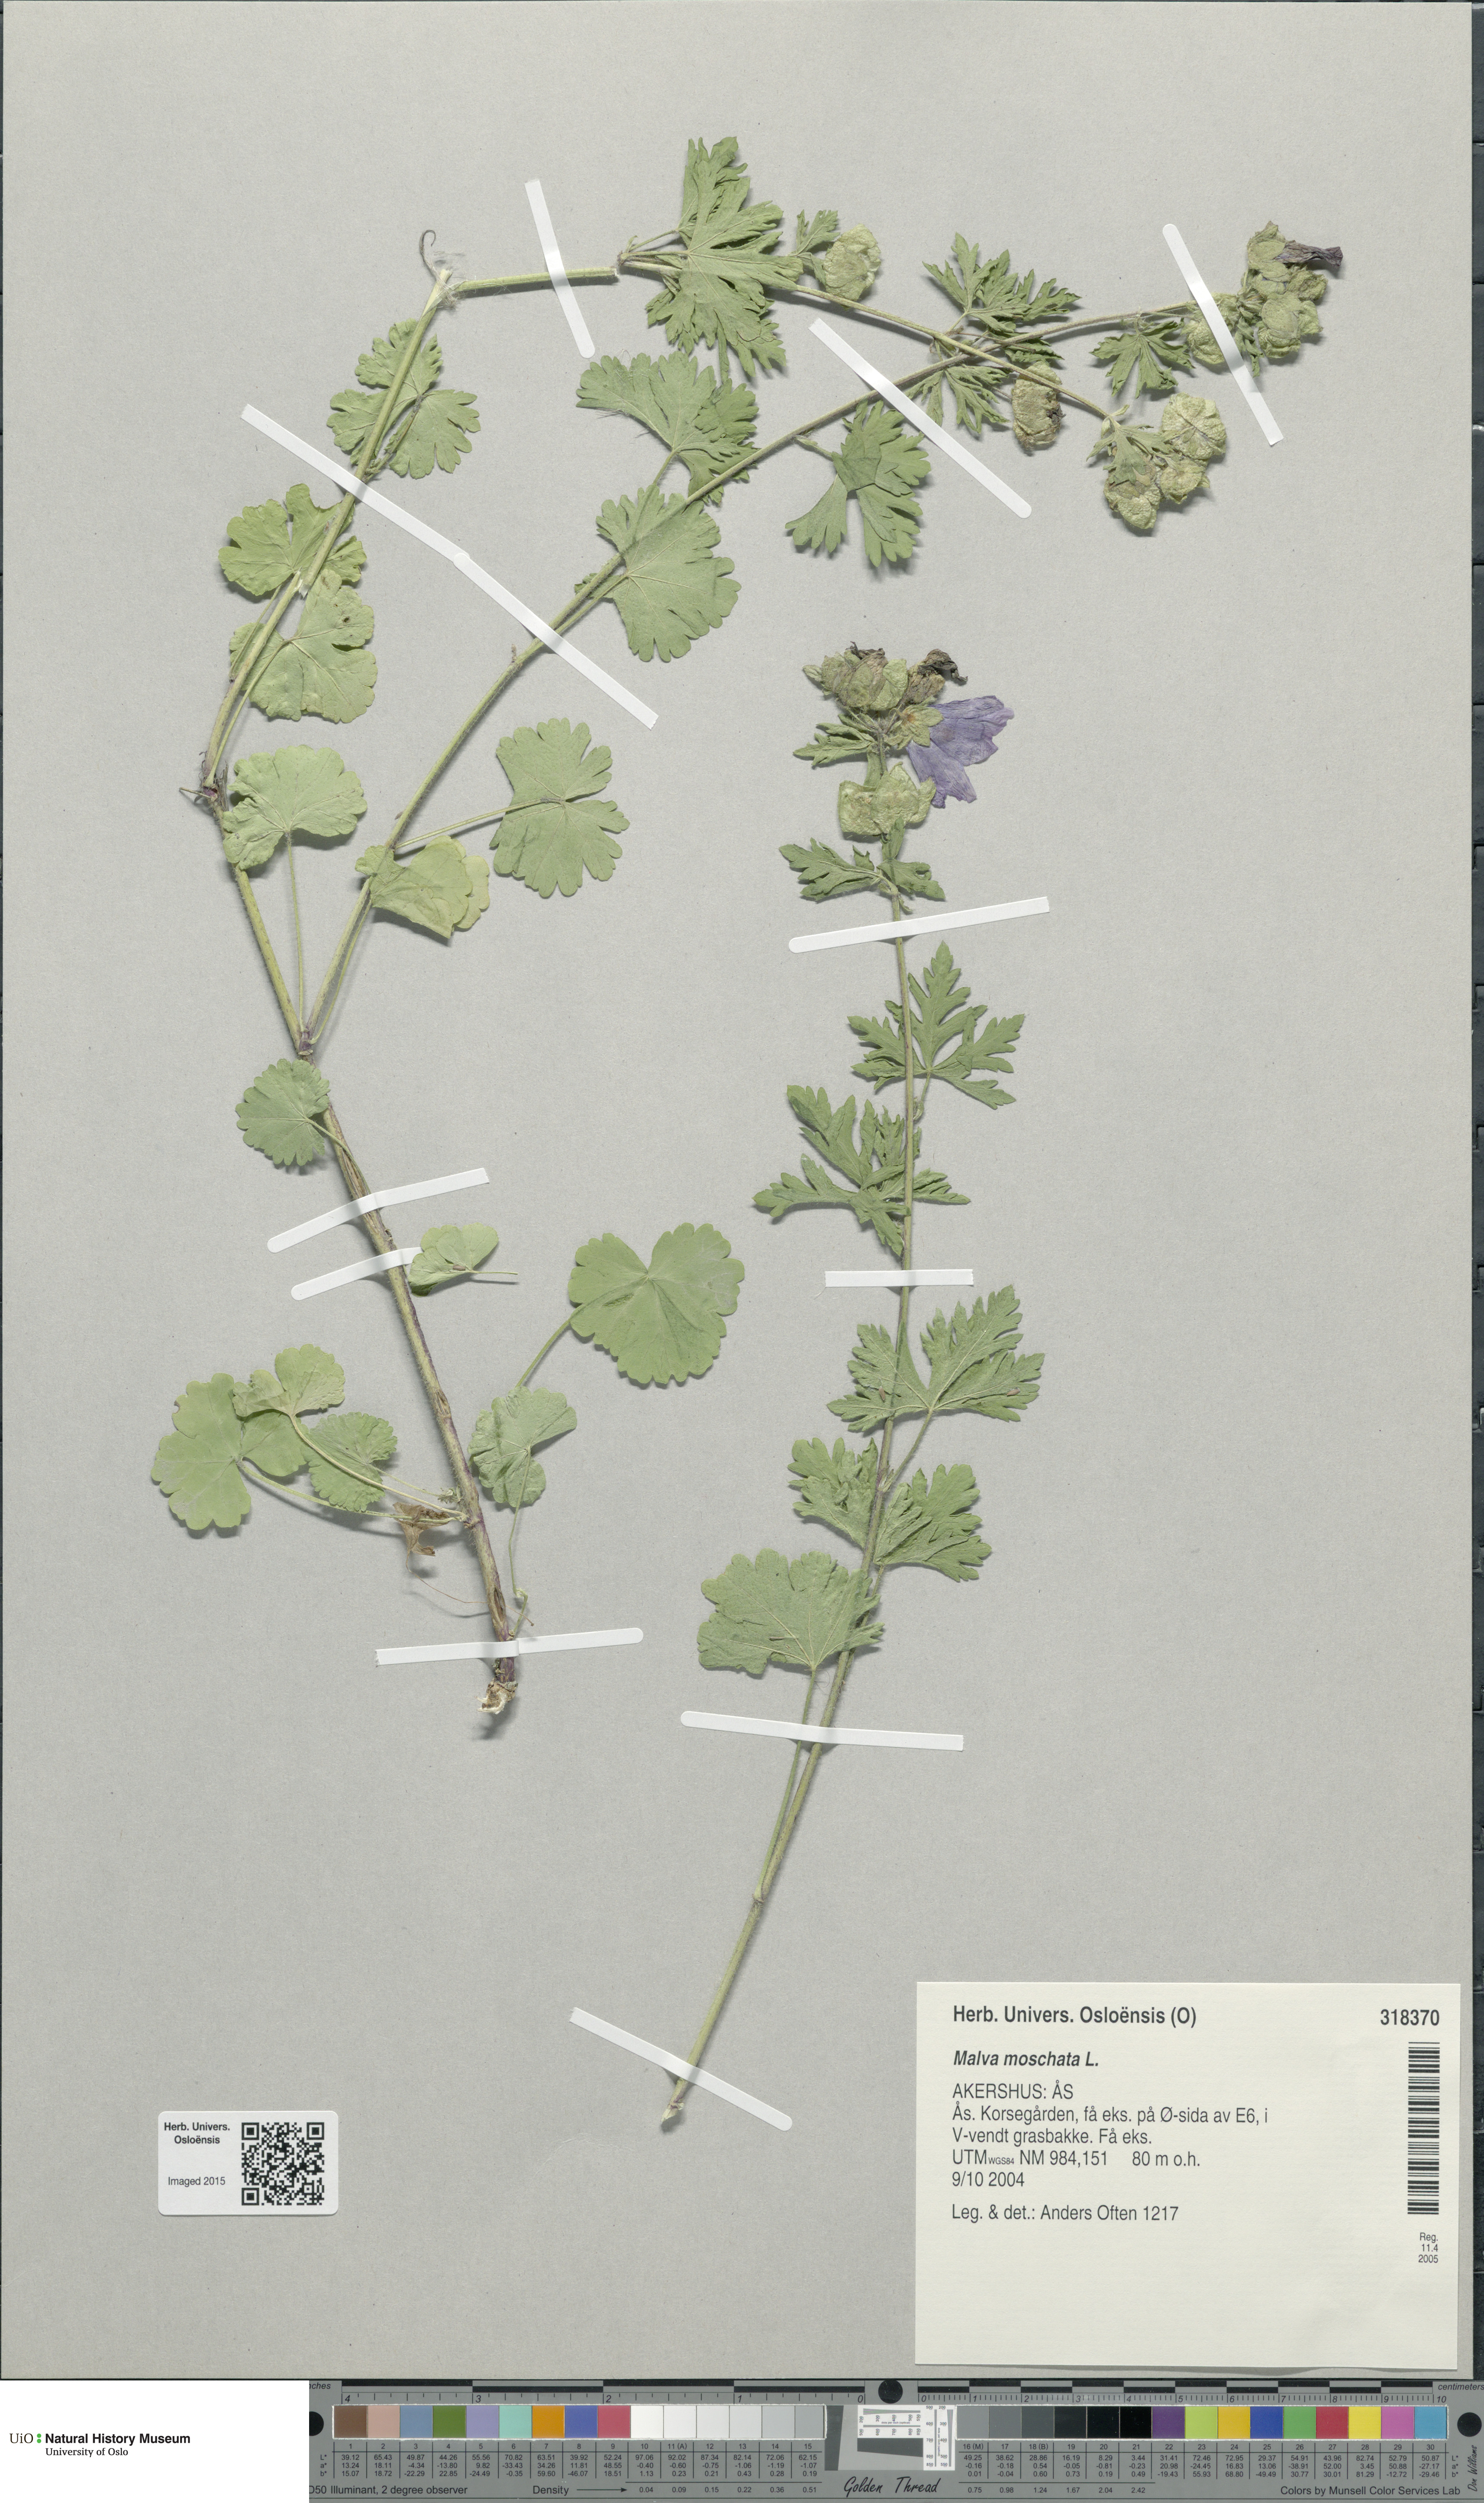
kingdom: Plantae
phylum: Tracheophyta
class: Magnoliopsida
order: Malvales
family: Malvaceae
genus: Malva
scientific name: Malva moschata
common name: Musk mallow
